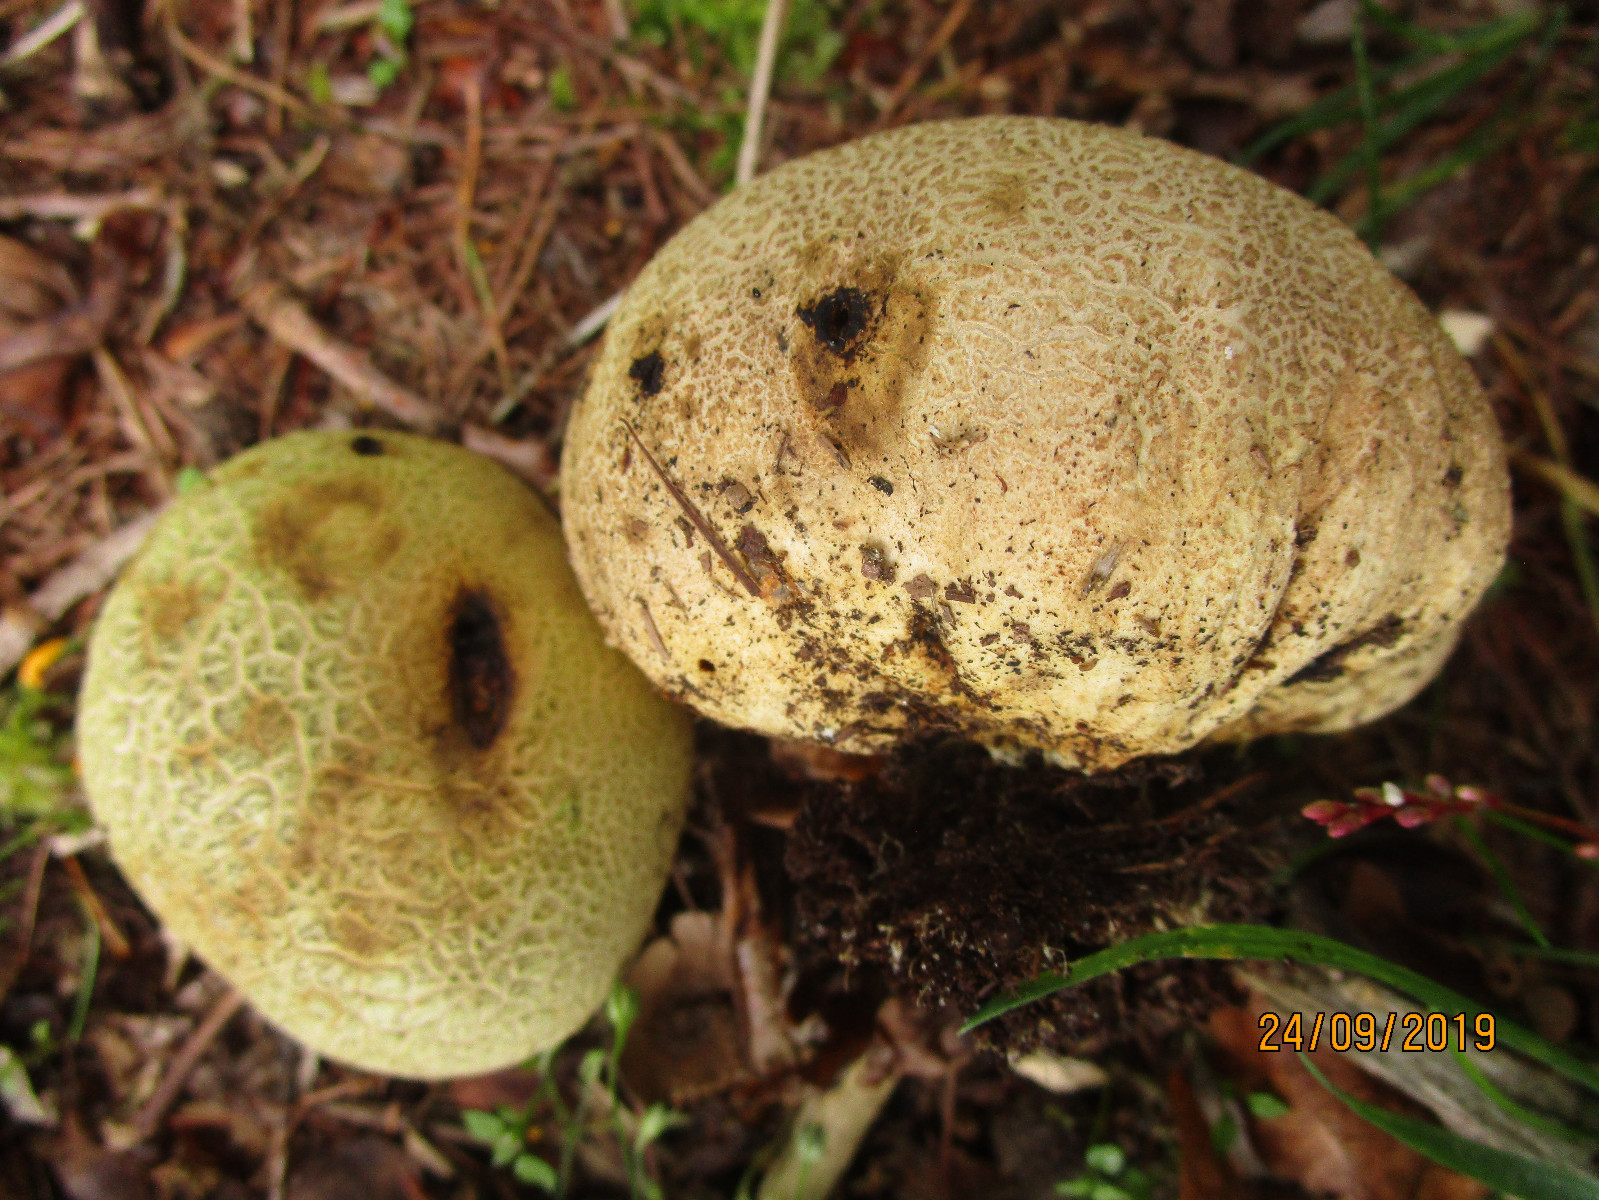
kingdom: Fungi
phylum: Basidiomycota
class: Agaricomycetes
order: Boletales
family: Sclerodermataceae
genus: Scleroderma
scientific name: Scleroderma areolatum
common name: plettet bruskbold
